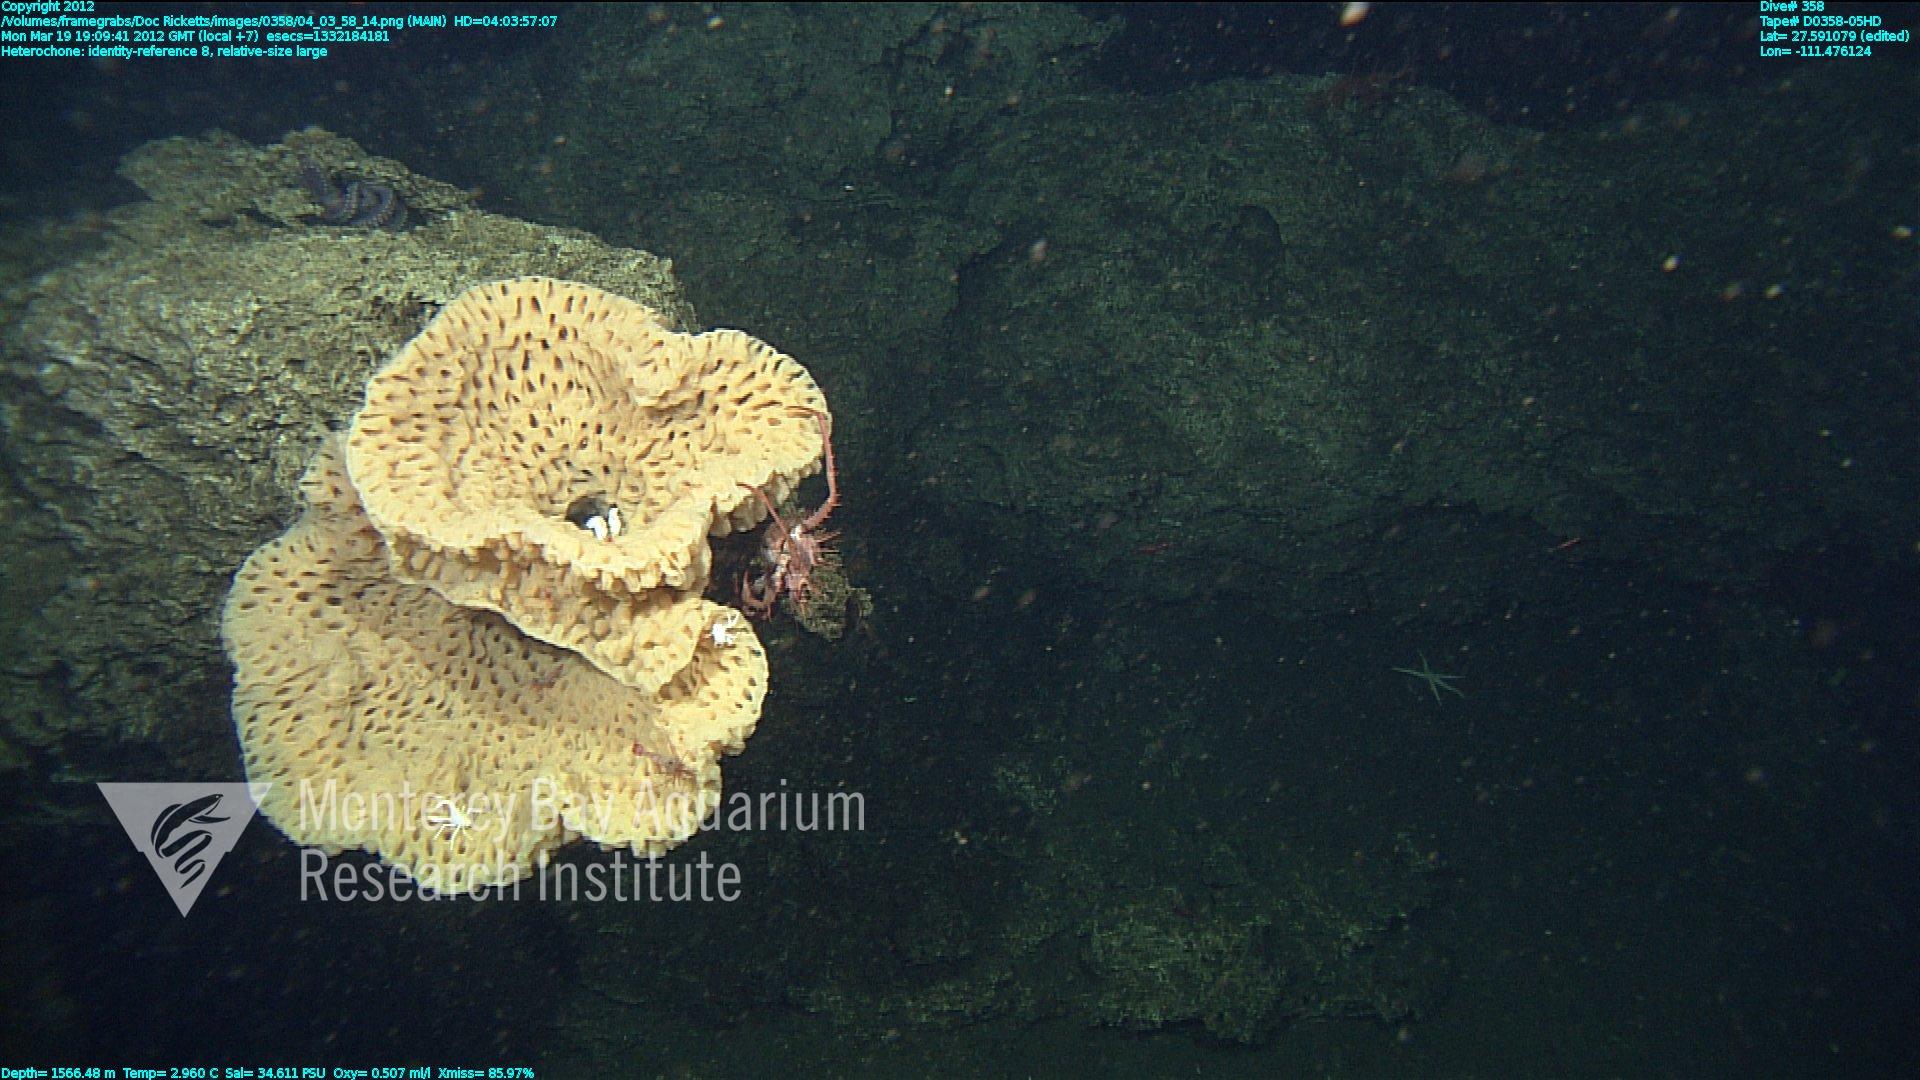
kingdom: Animalia
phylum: Porifera
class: Hexactinellida
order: Sceptrulophora
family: Aphrocallistidae
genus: Heterochone
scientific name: Heterochone
